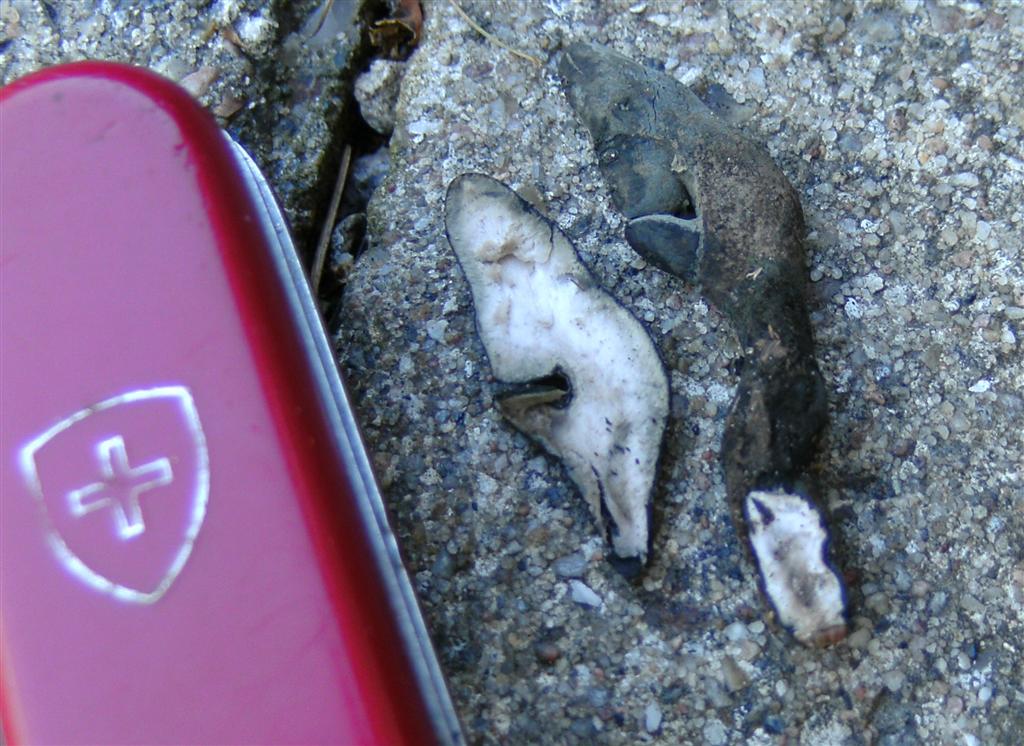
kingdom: Fungi
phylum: Ascomycota
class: Sordariomycetes
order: Xylariales
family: Xylariaceae
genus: Xylaria
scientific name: Xylaria polymorpha
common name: kølle-stødsvamp
